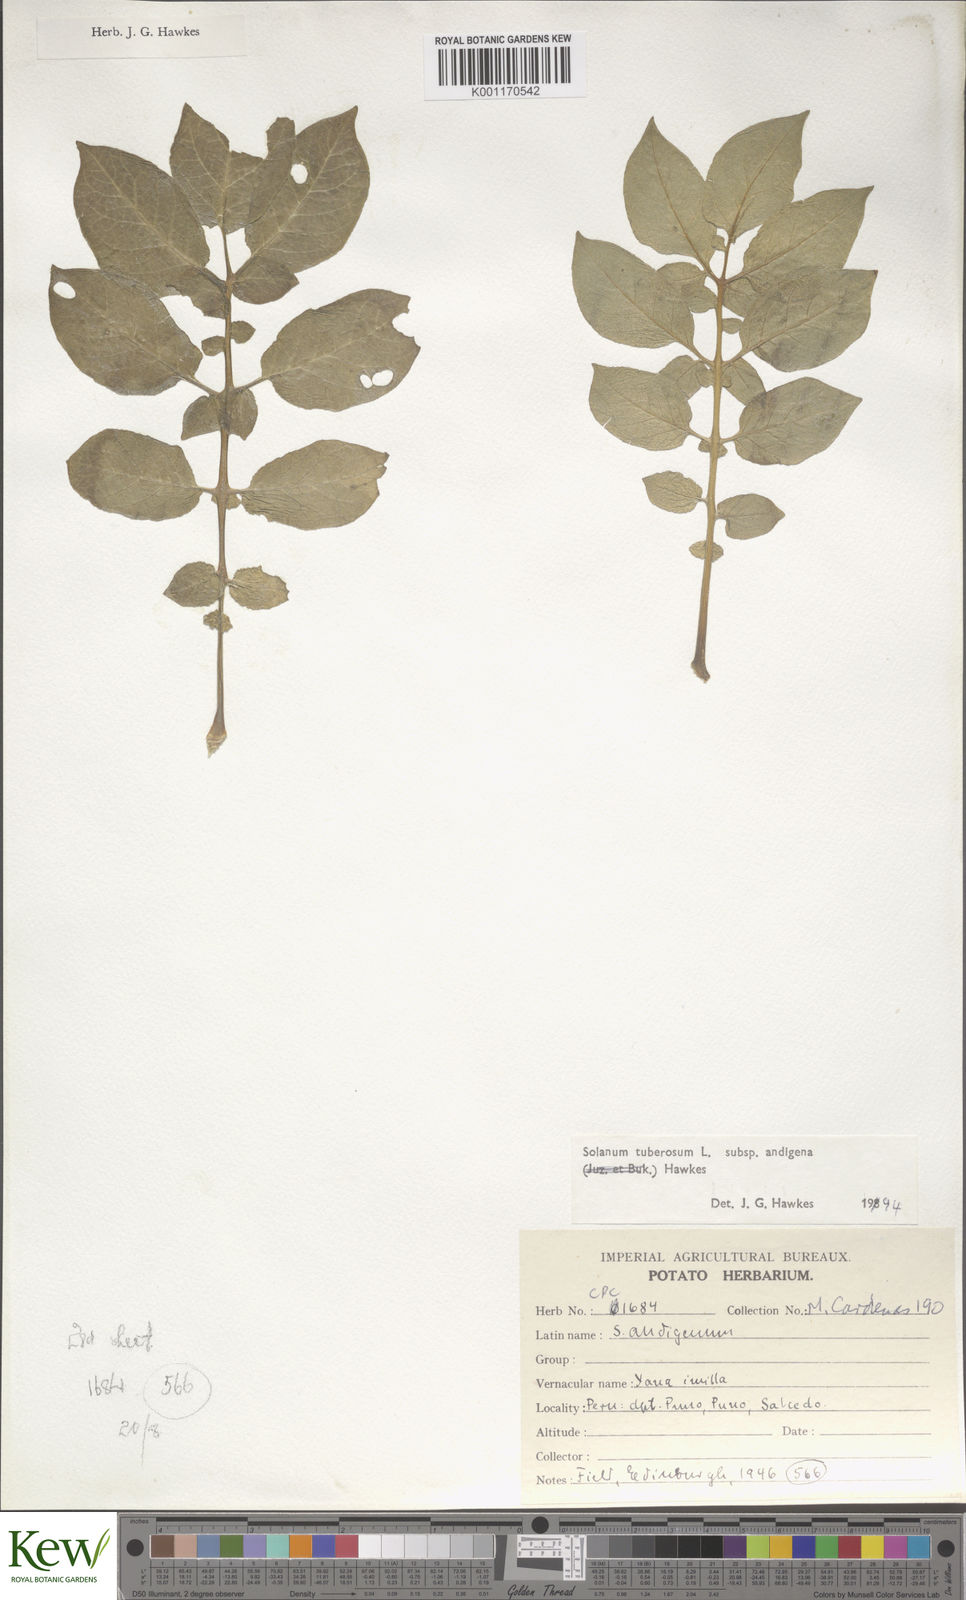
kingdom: Plantae
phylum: Tracheophyta
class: Magnoliopsida
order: Solanales
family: Solanaceae
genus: Solanum
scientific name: Solanum tuberosum
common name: Potato
